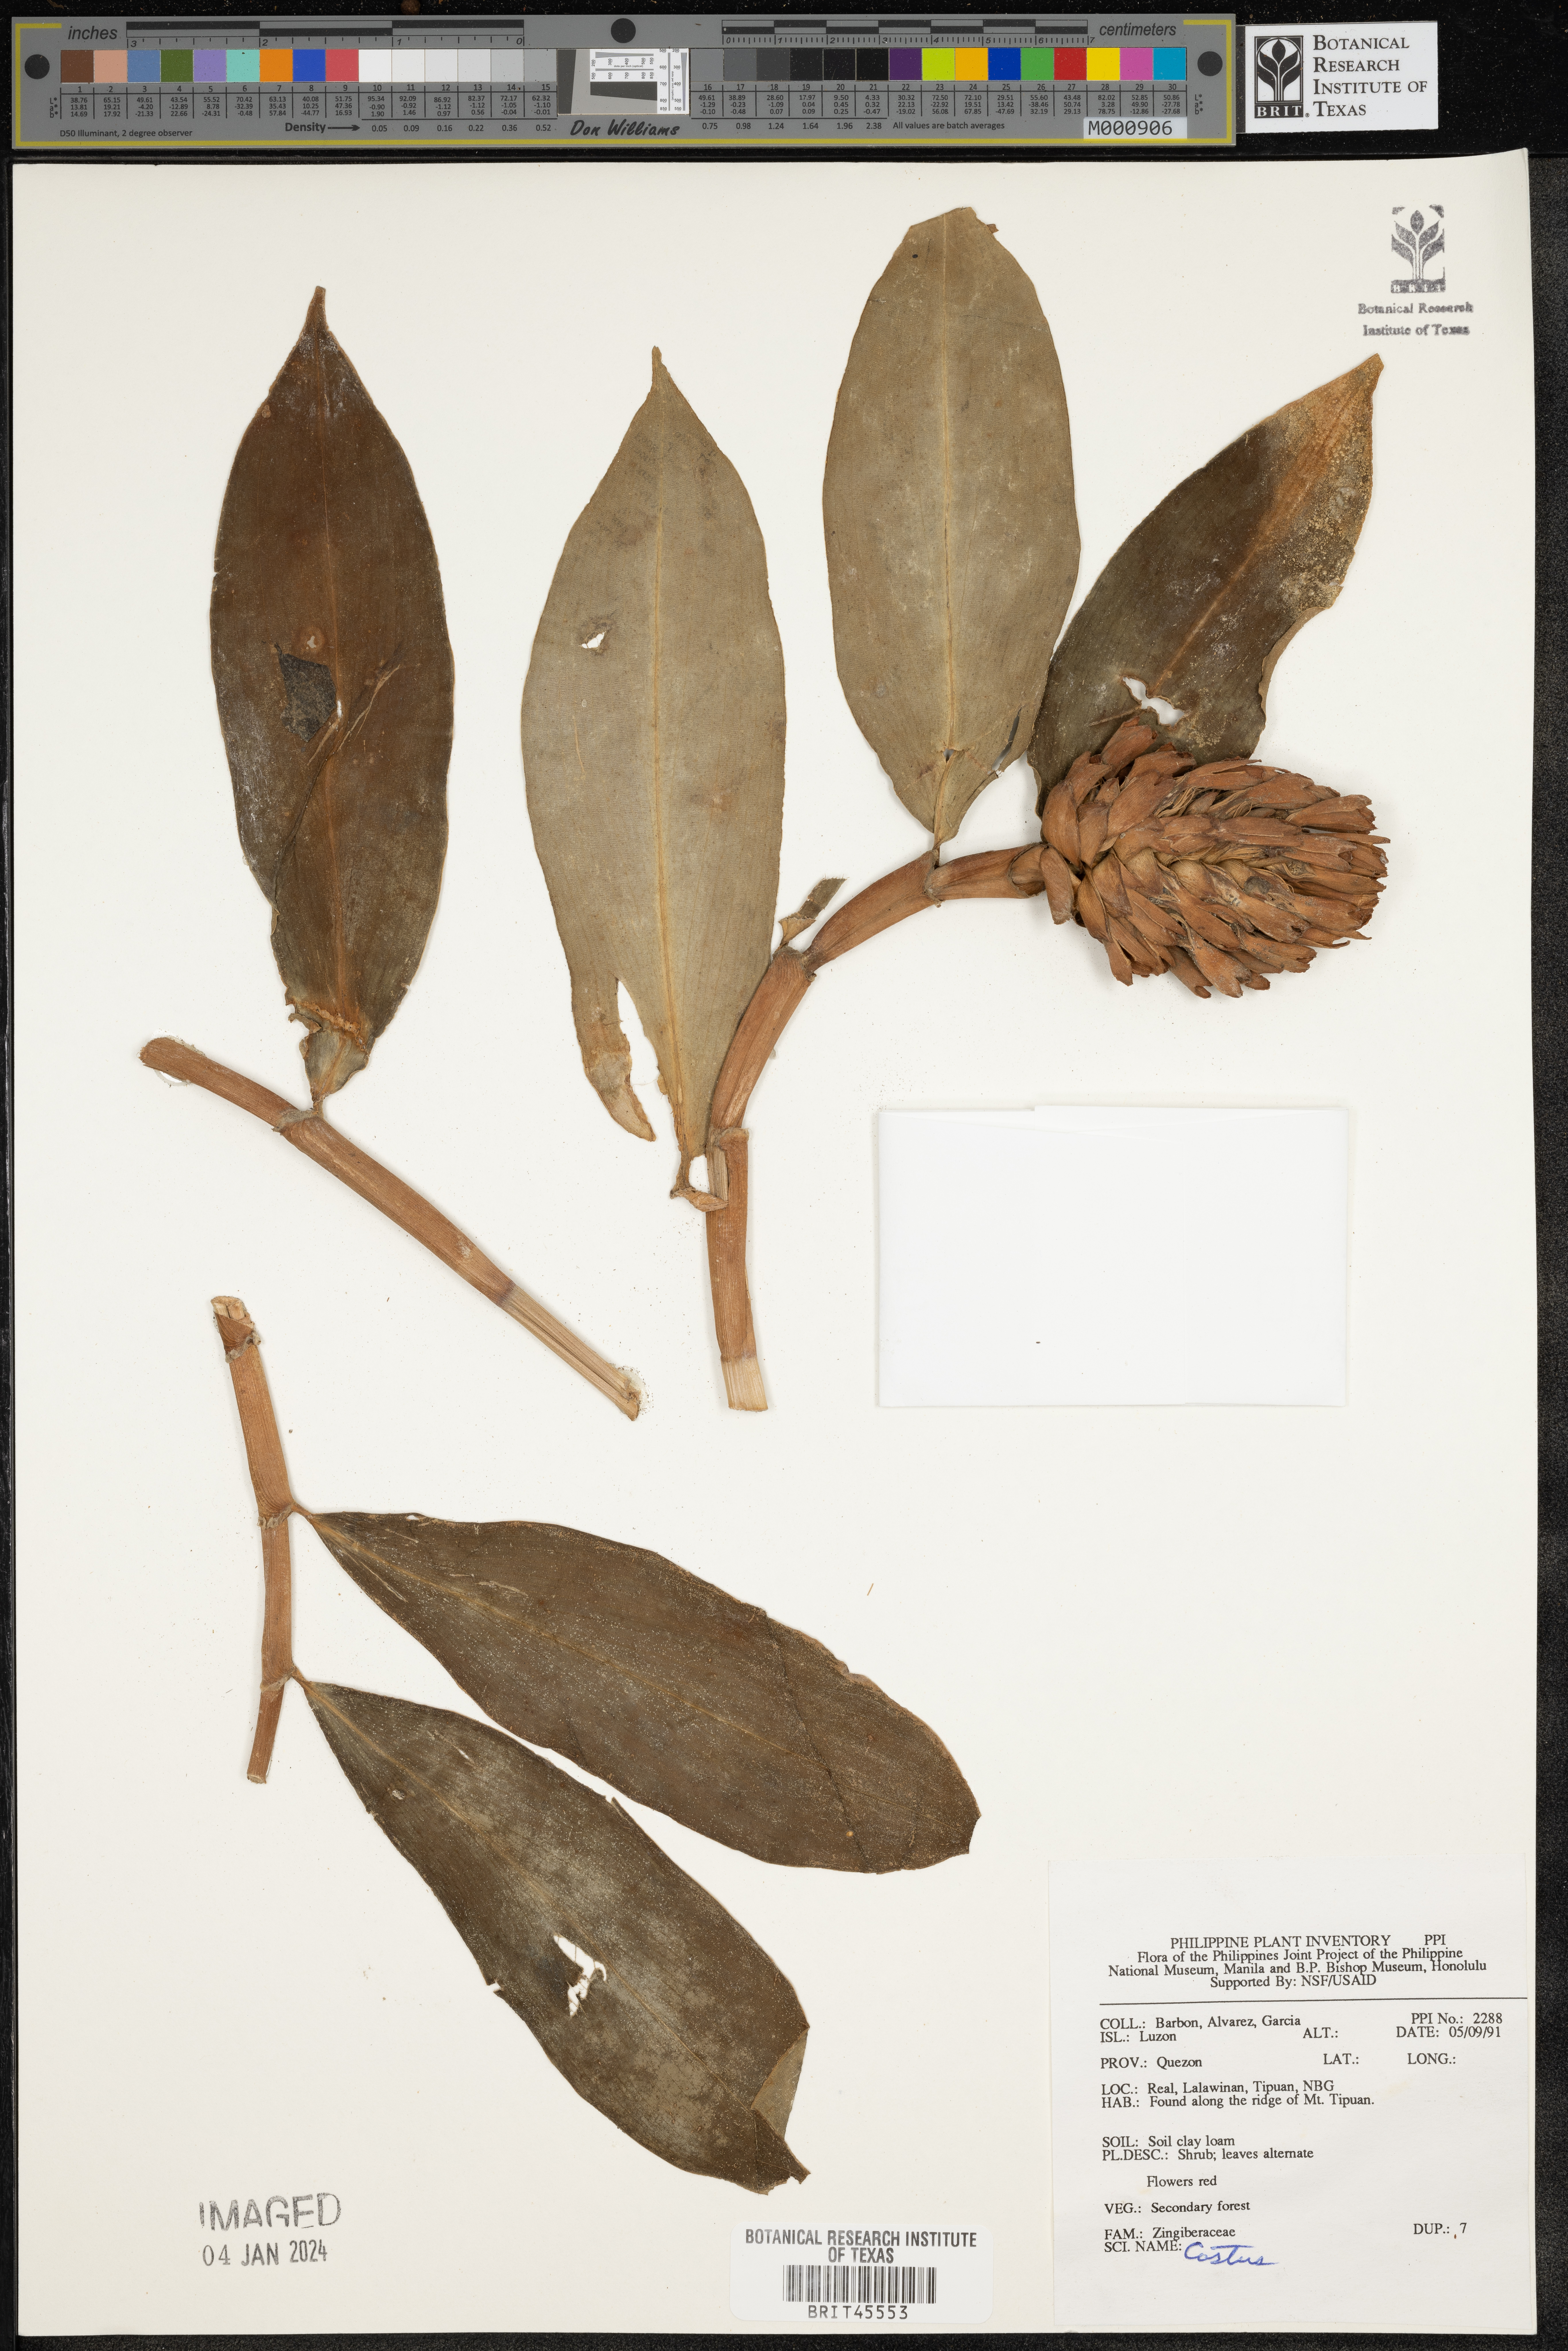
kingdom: Plantae
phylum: Tracheophyta
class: Liliopsida
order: Zingiberales
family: Costaceae
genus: Costus
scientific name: Costus
